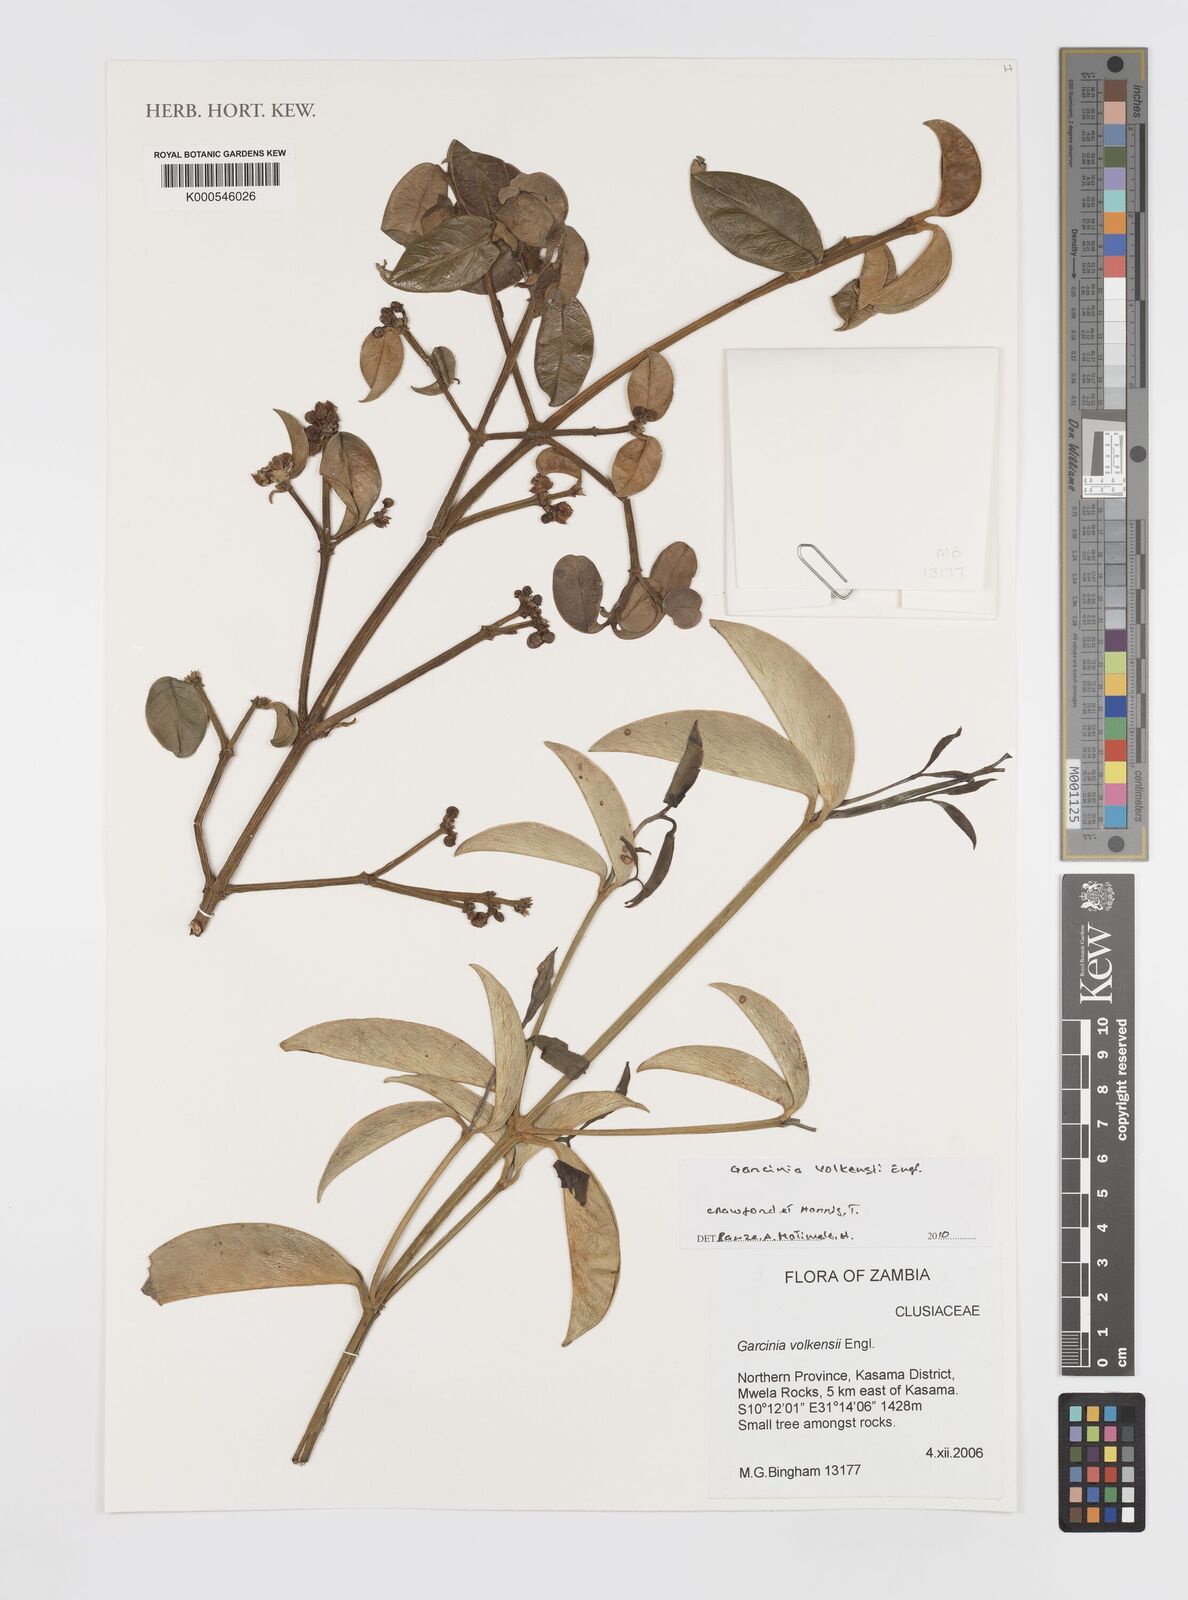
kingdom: Plantae
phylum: Tracheophyta
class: Magnoliopsida
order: Malpighiales
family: Clusiaceae
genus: Garcinia
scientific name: Garcinia volkensii
